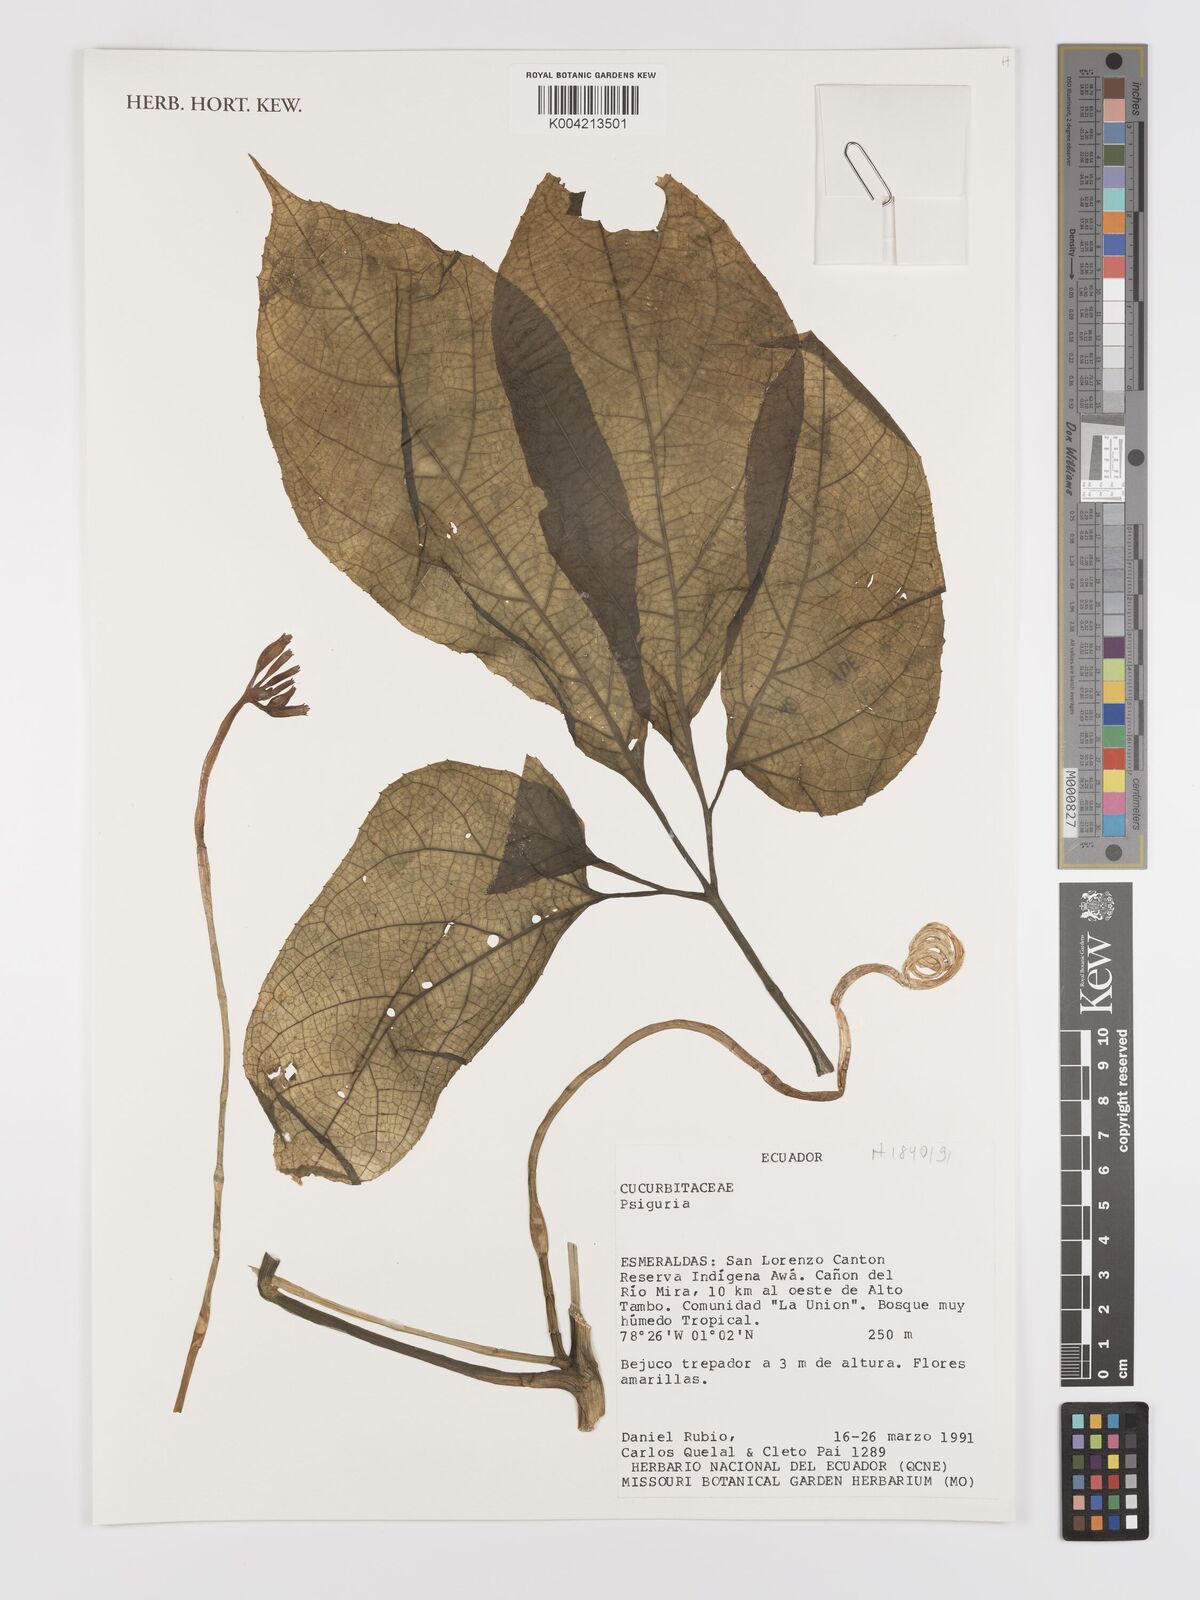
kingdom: Plantae
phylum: Tracheophyta
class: Magnoliopsida
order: Cucurbitales
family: Cucurbitaceae
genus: Psiguria
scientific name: Psiguria
